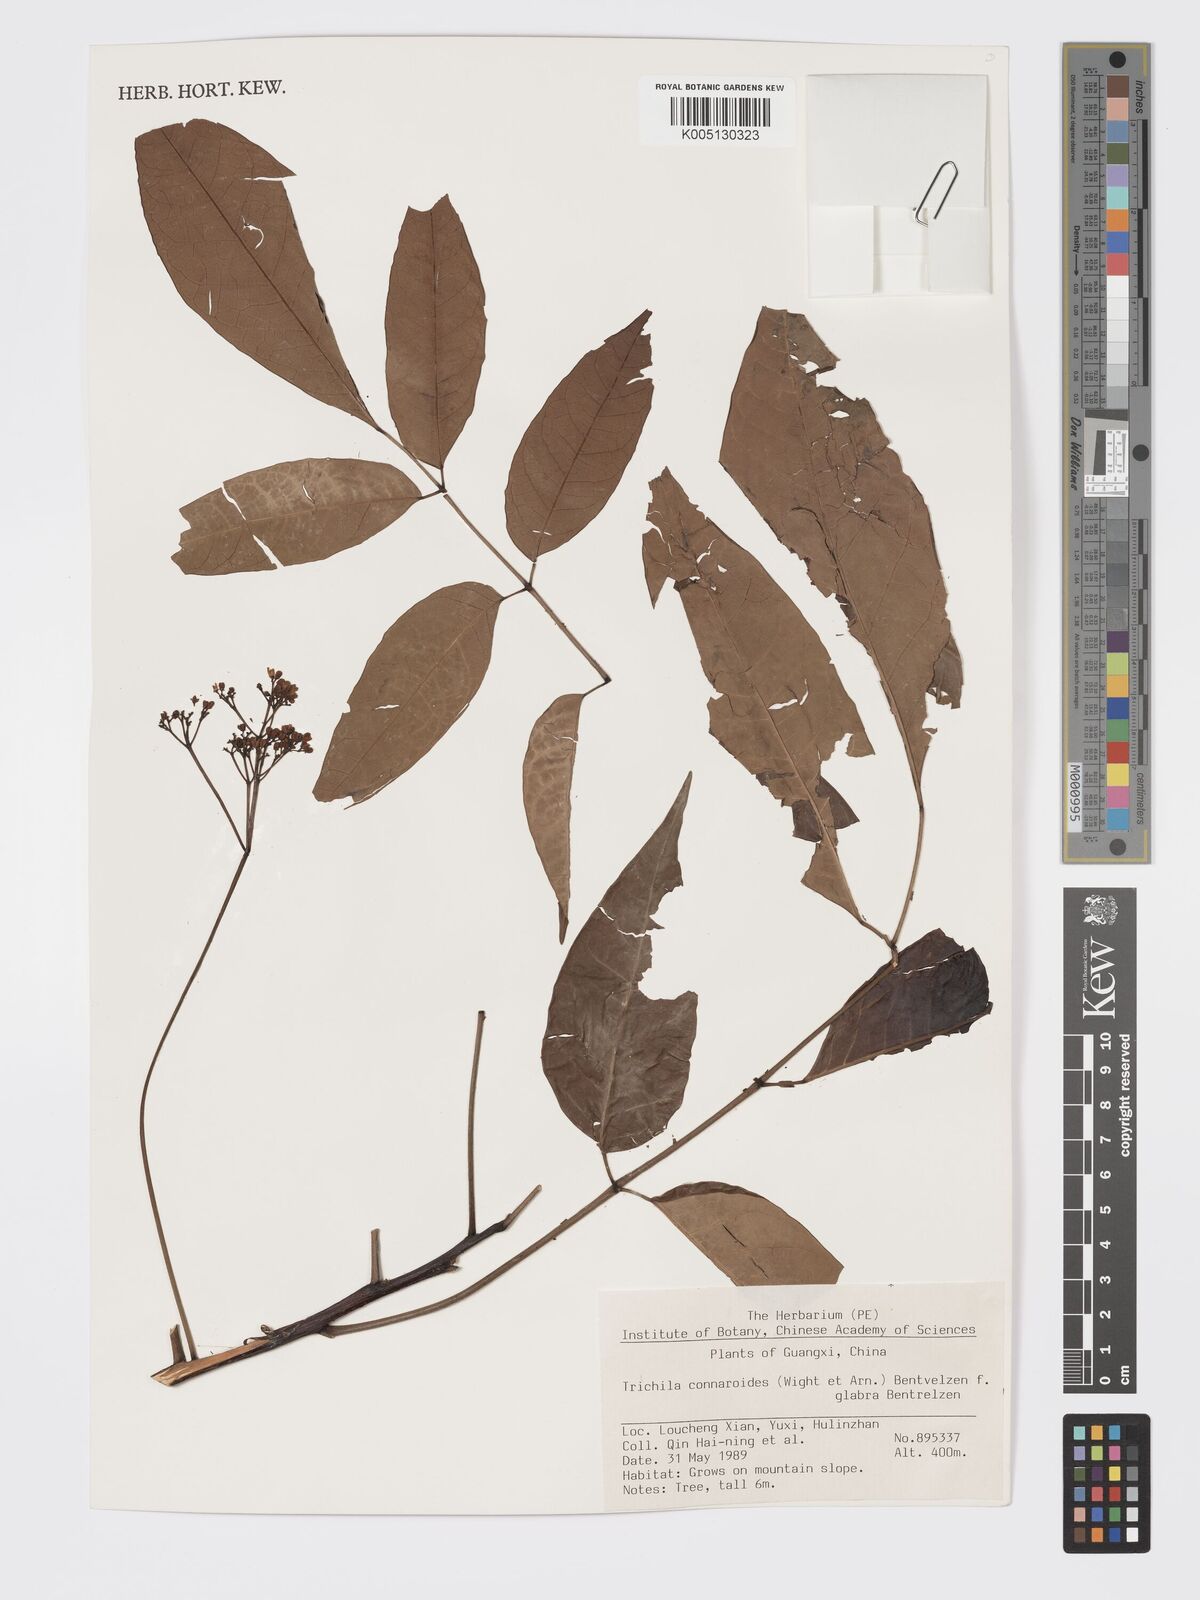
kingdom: Plantae
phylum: Tracheophyta
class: Magnoliopsida
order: Sapindales
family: Meliaceae
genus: Heynea
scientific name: Heynea trijuga
